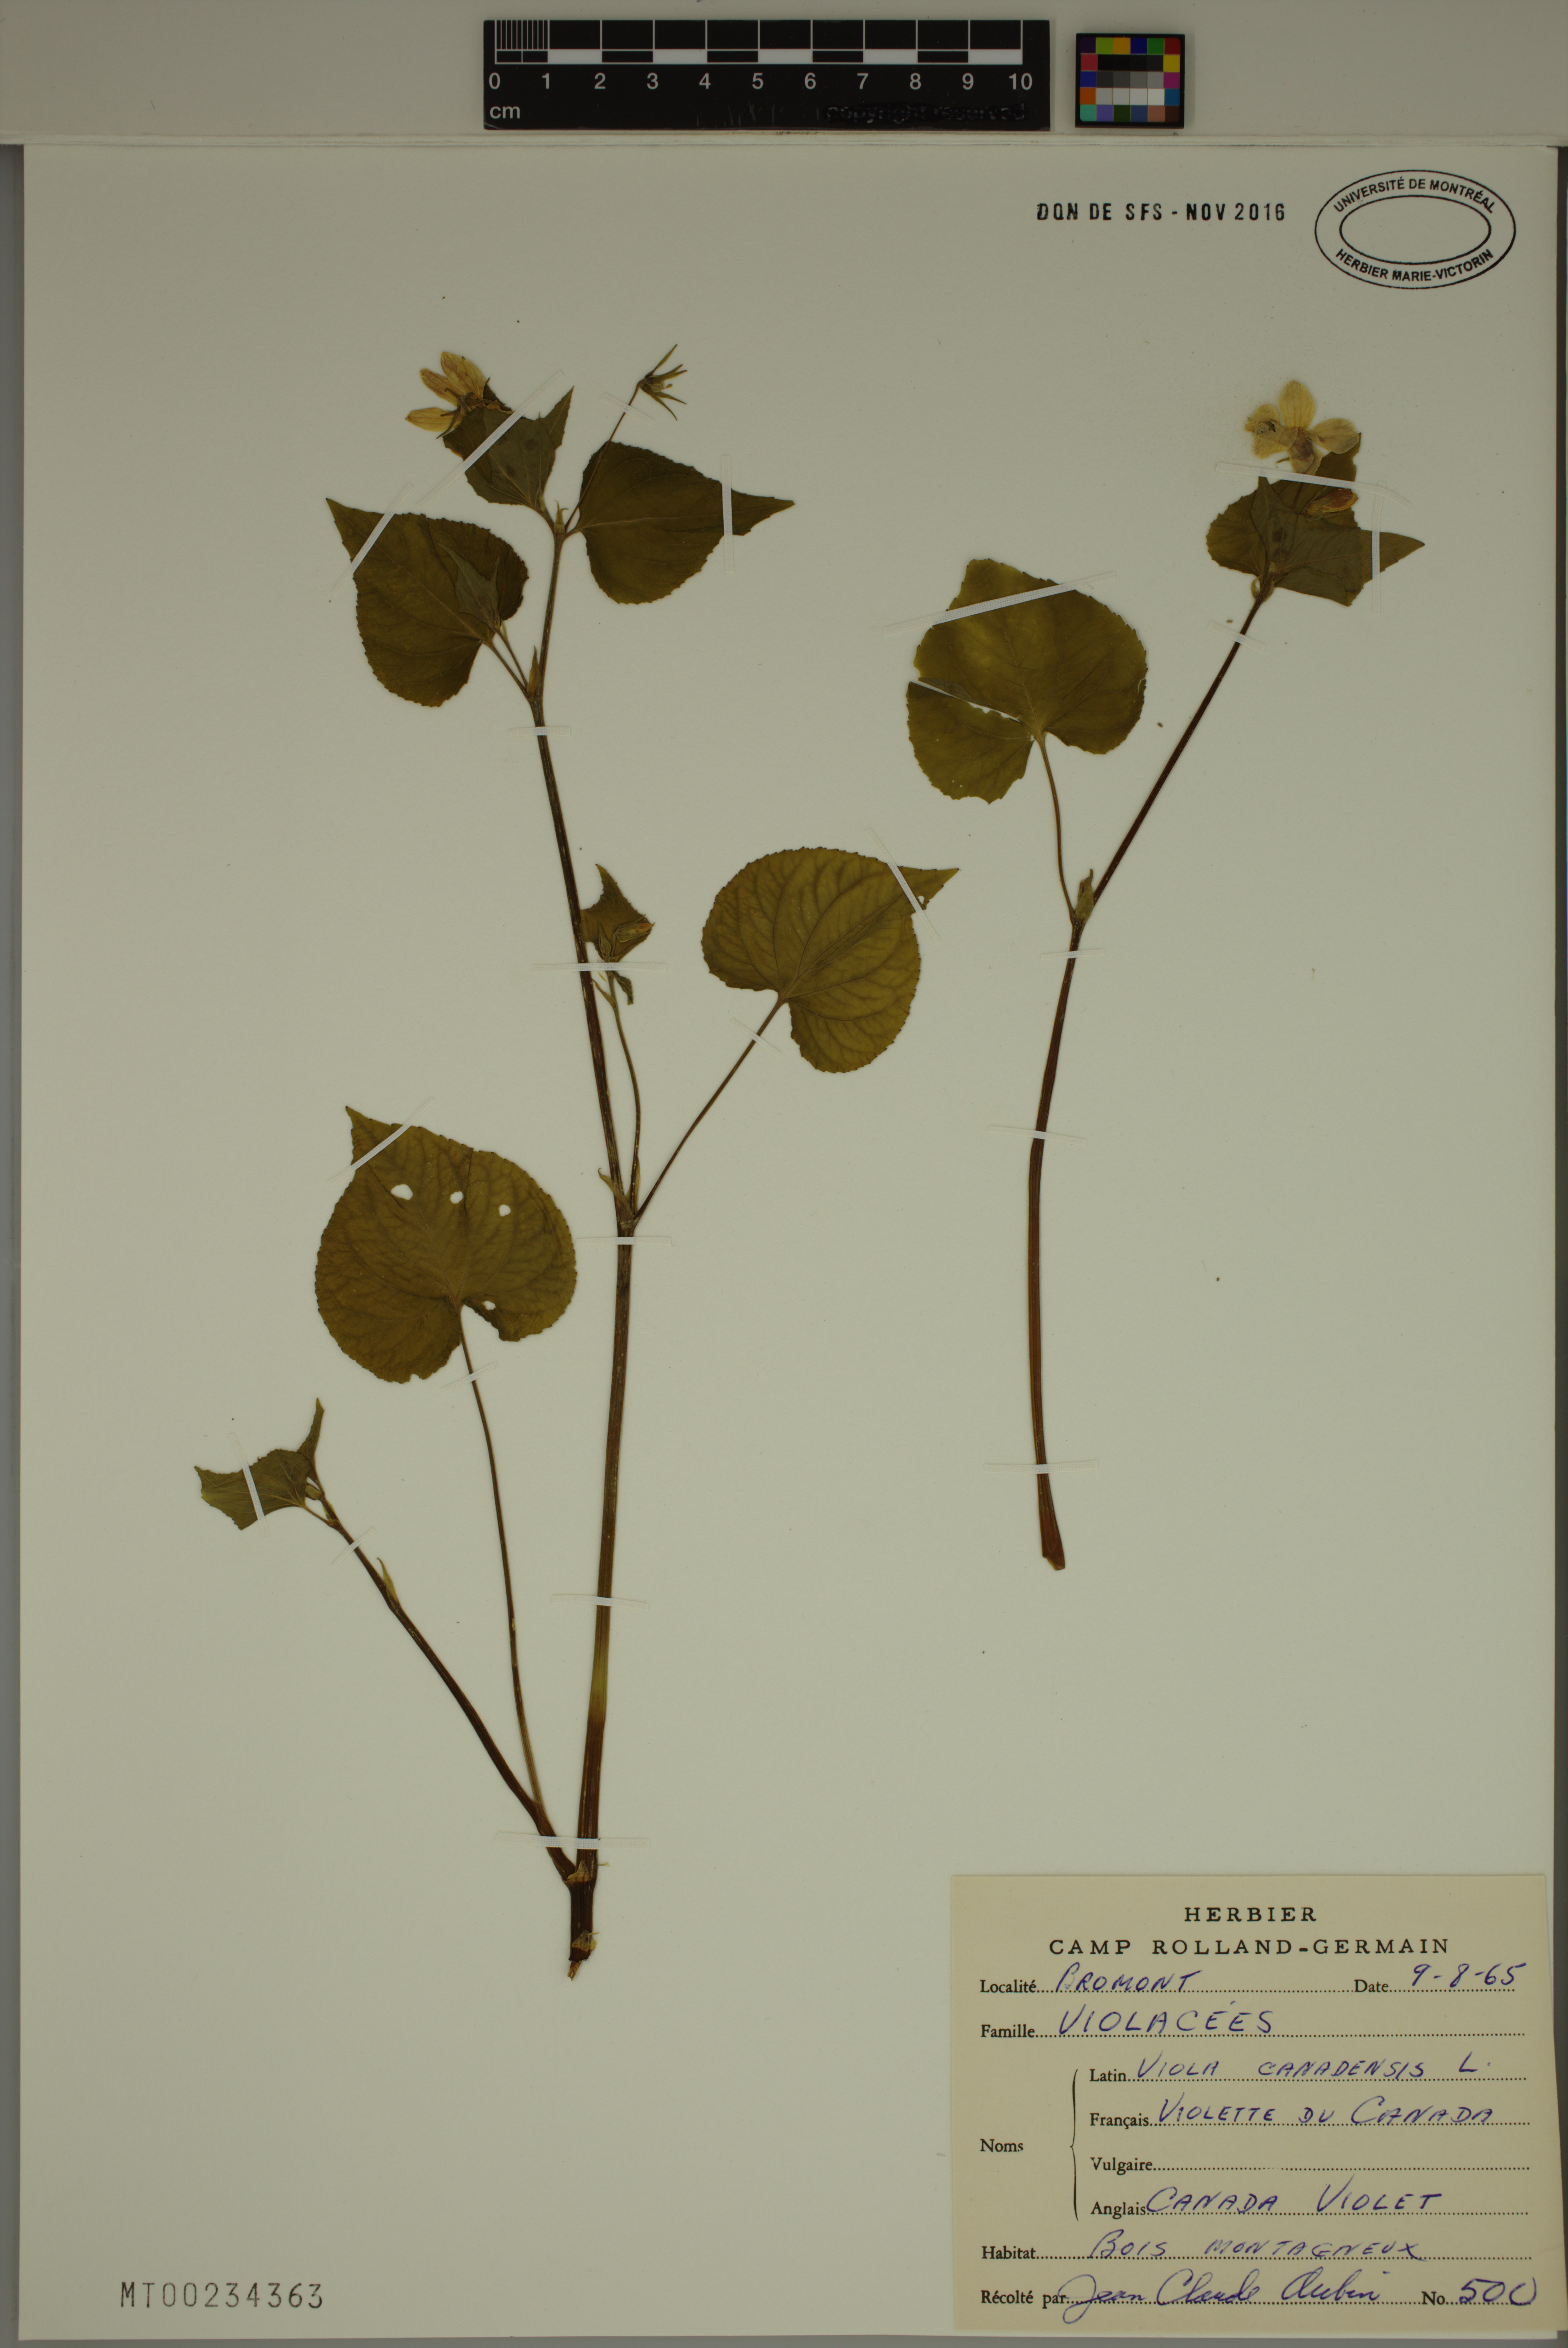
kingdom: Plantae
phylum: Tracheophyta
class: Magnoliopsida
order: Malpighiales
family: Violaceae
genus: Viola
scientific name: Viola canadensis
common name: Canada violet
